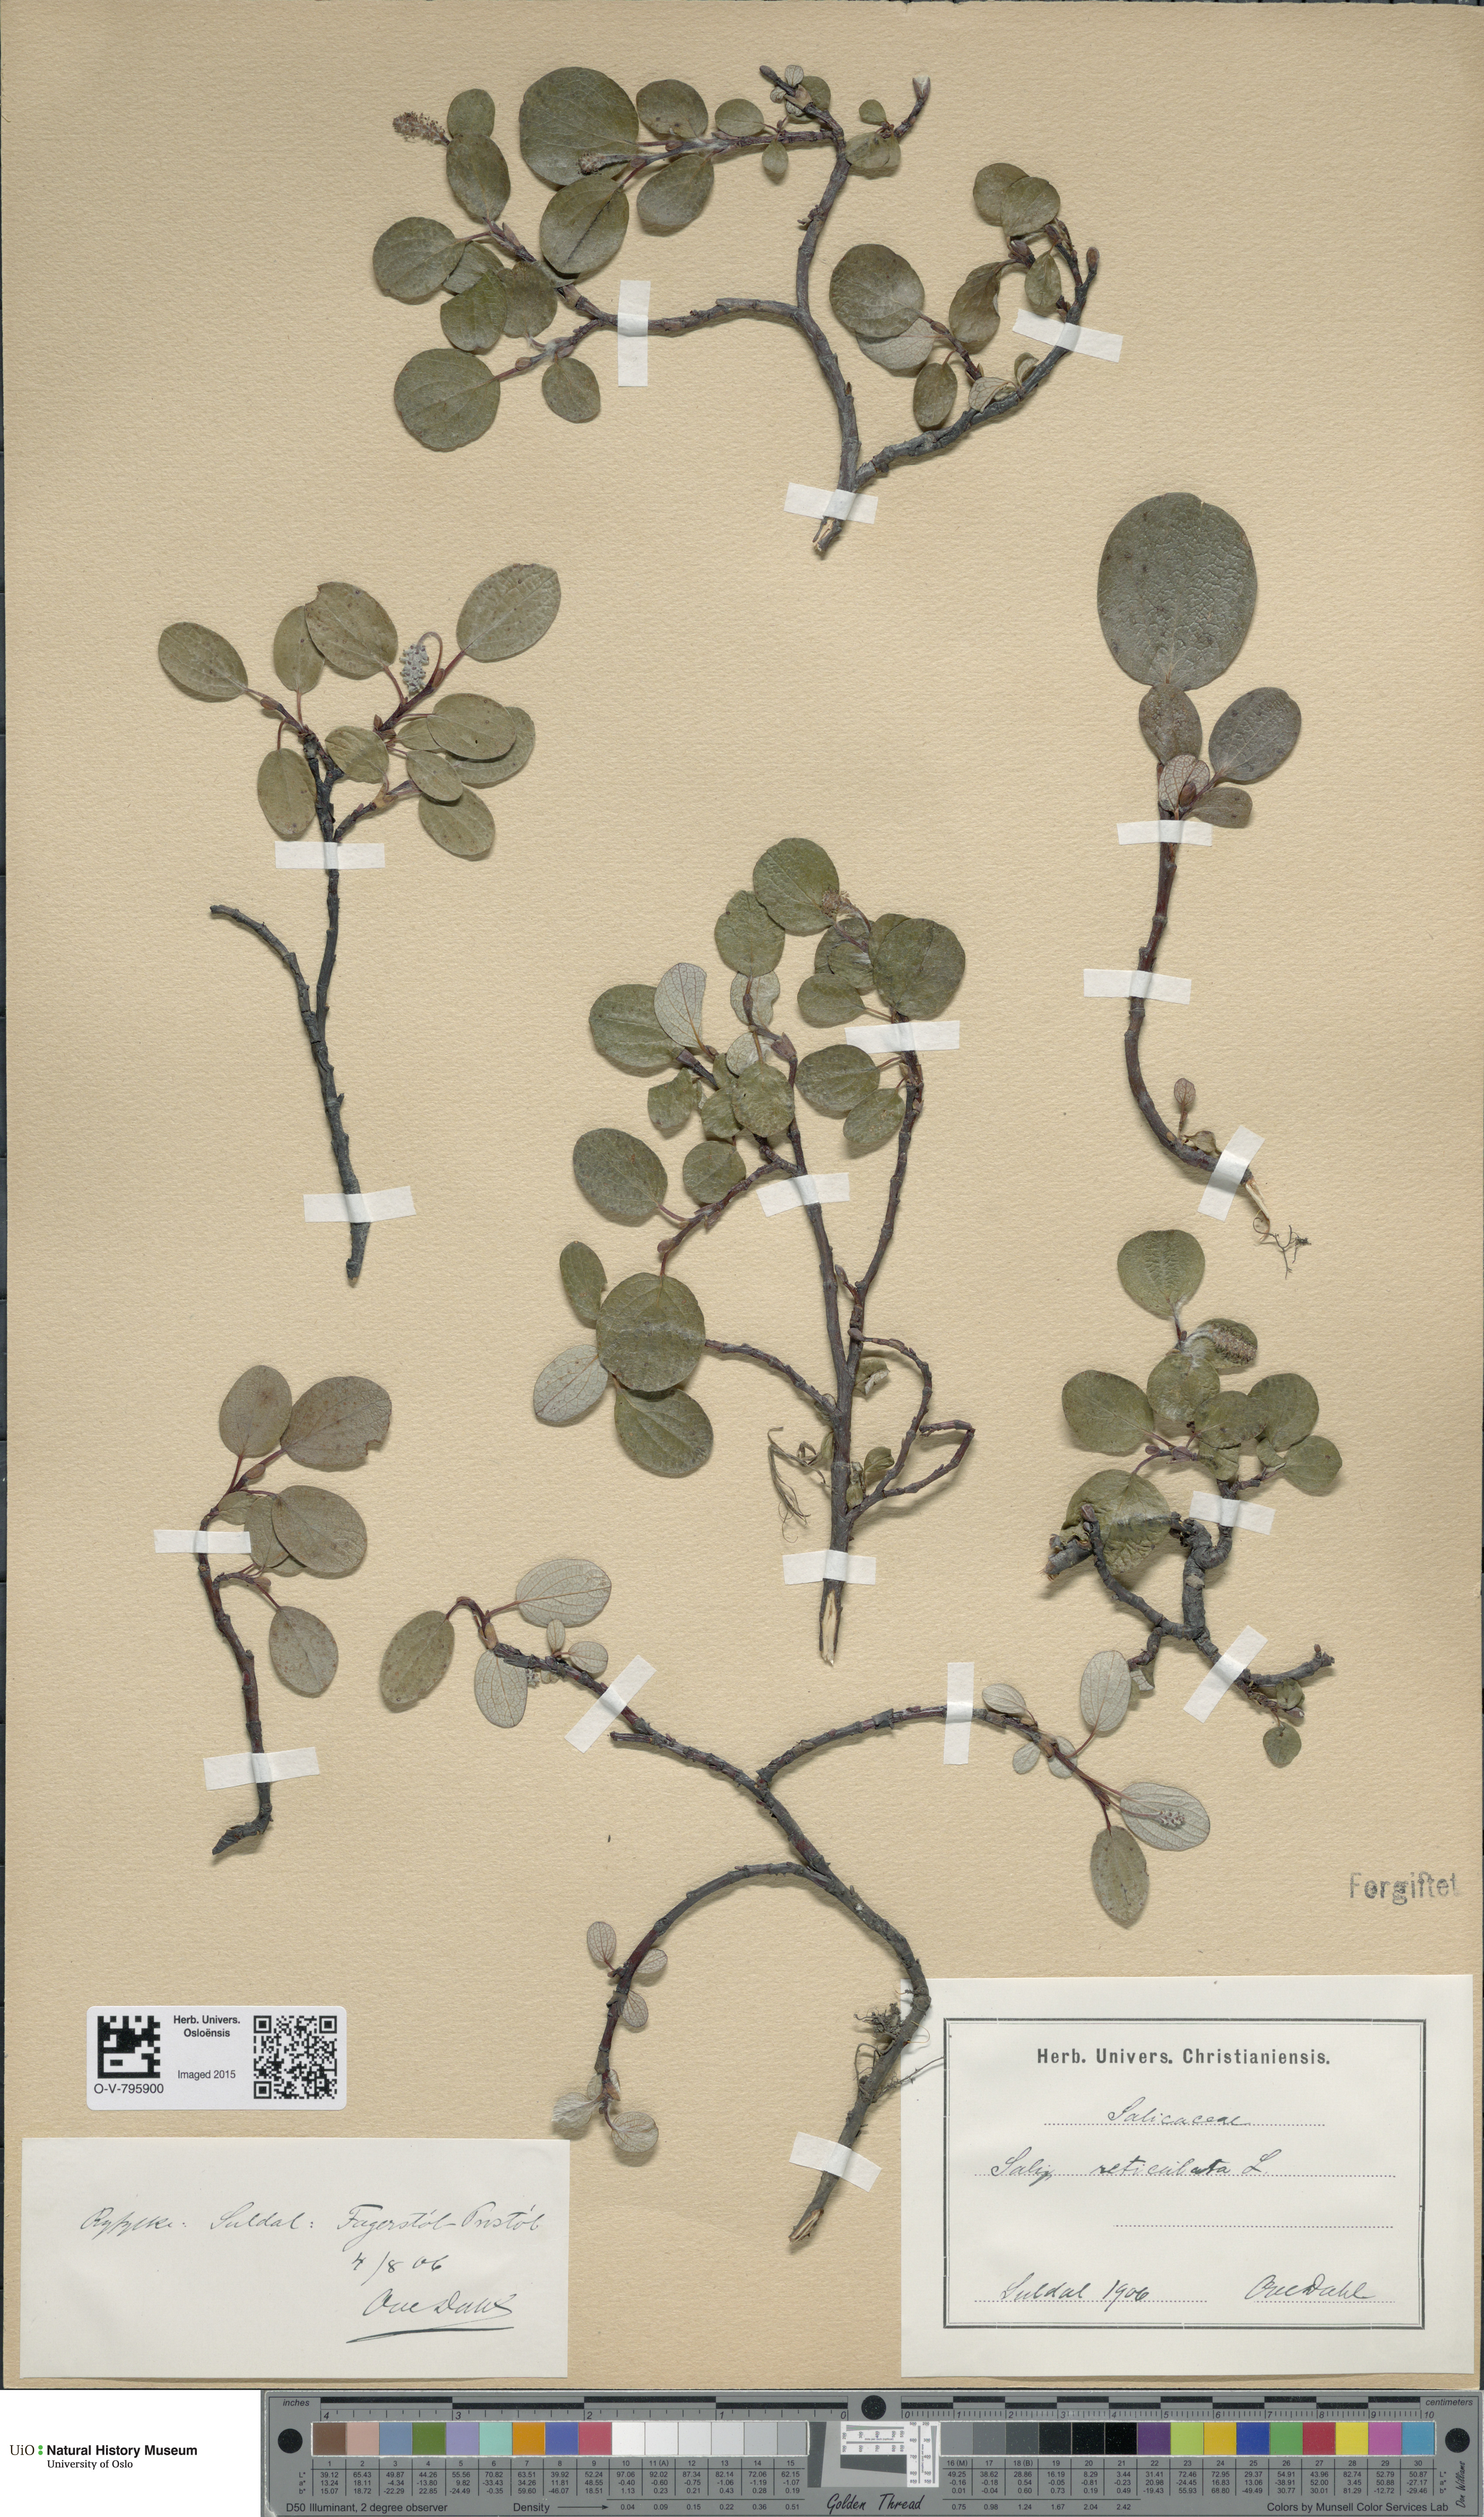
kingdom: Plantae
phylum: Tracheophyta
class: Magnoliopsida
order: Malpighiales
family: Salicaceae
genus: Salix
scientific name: Salix reticulata
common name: Net-leaved willow
